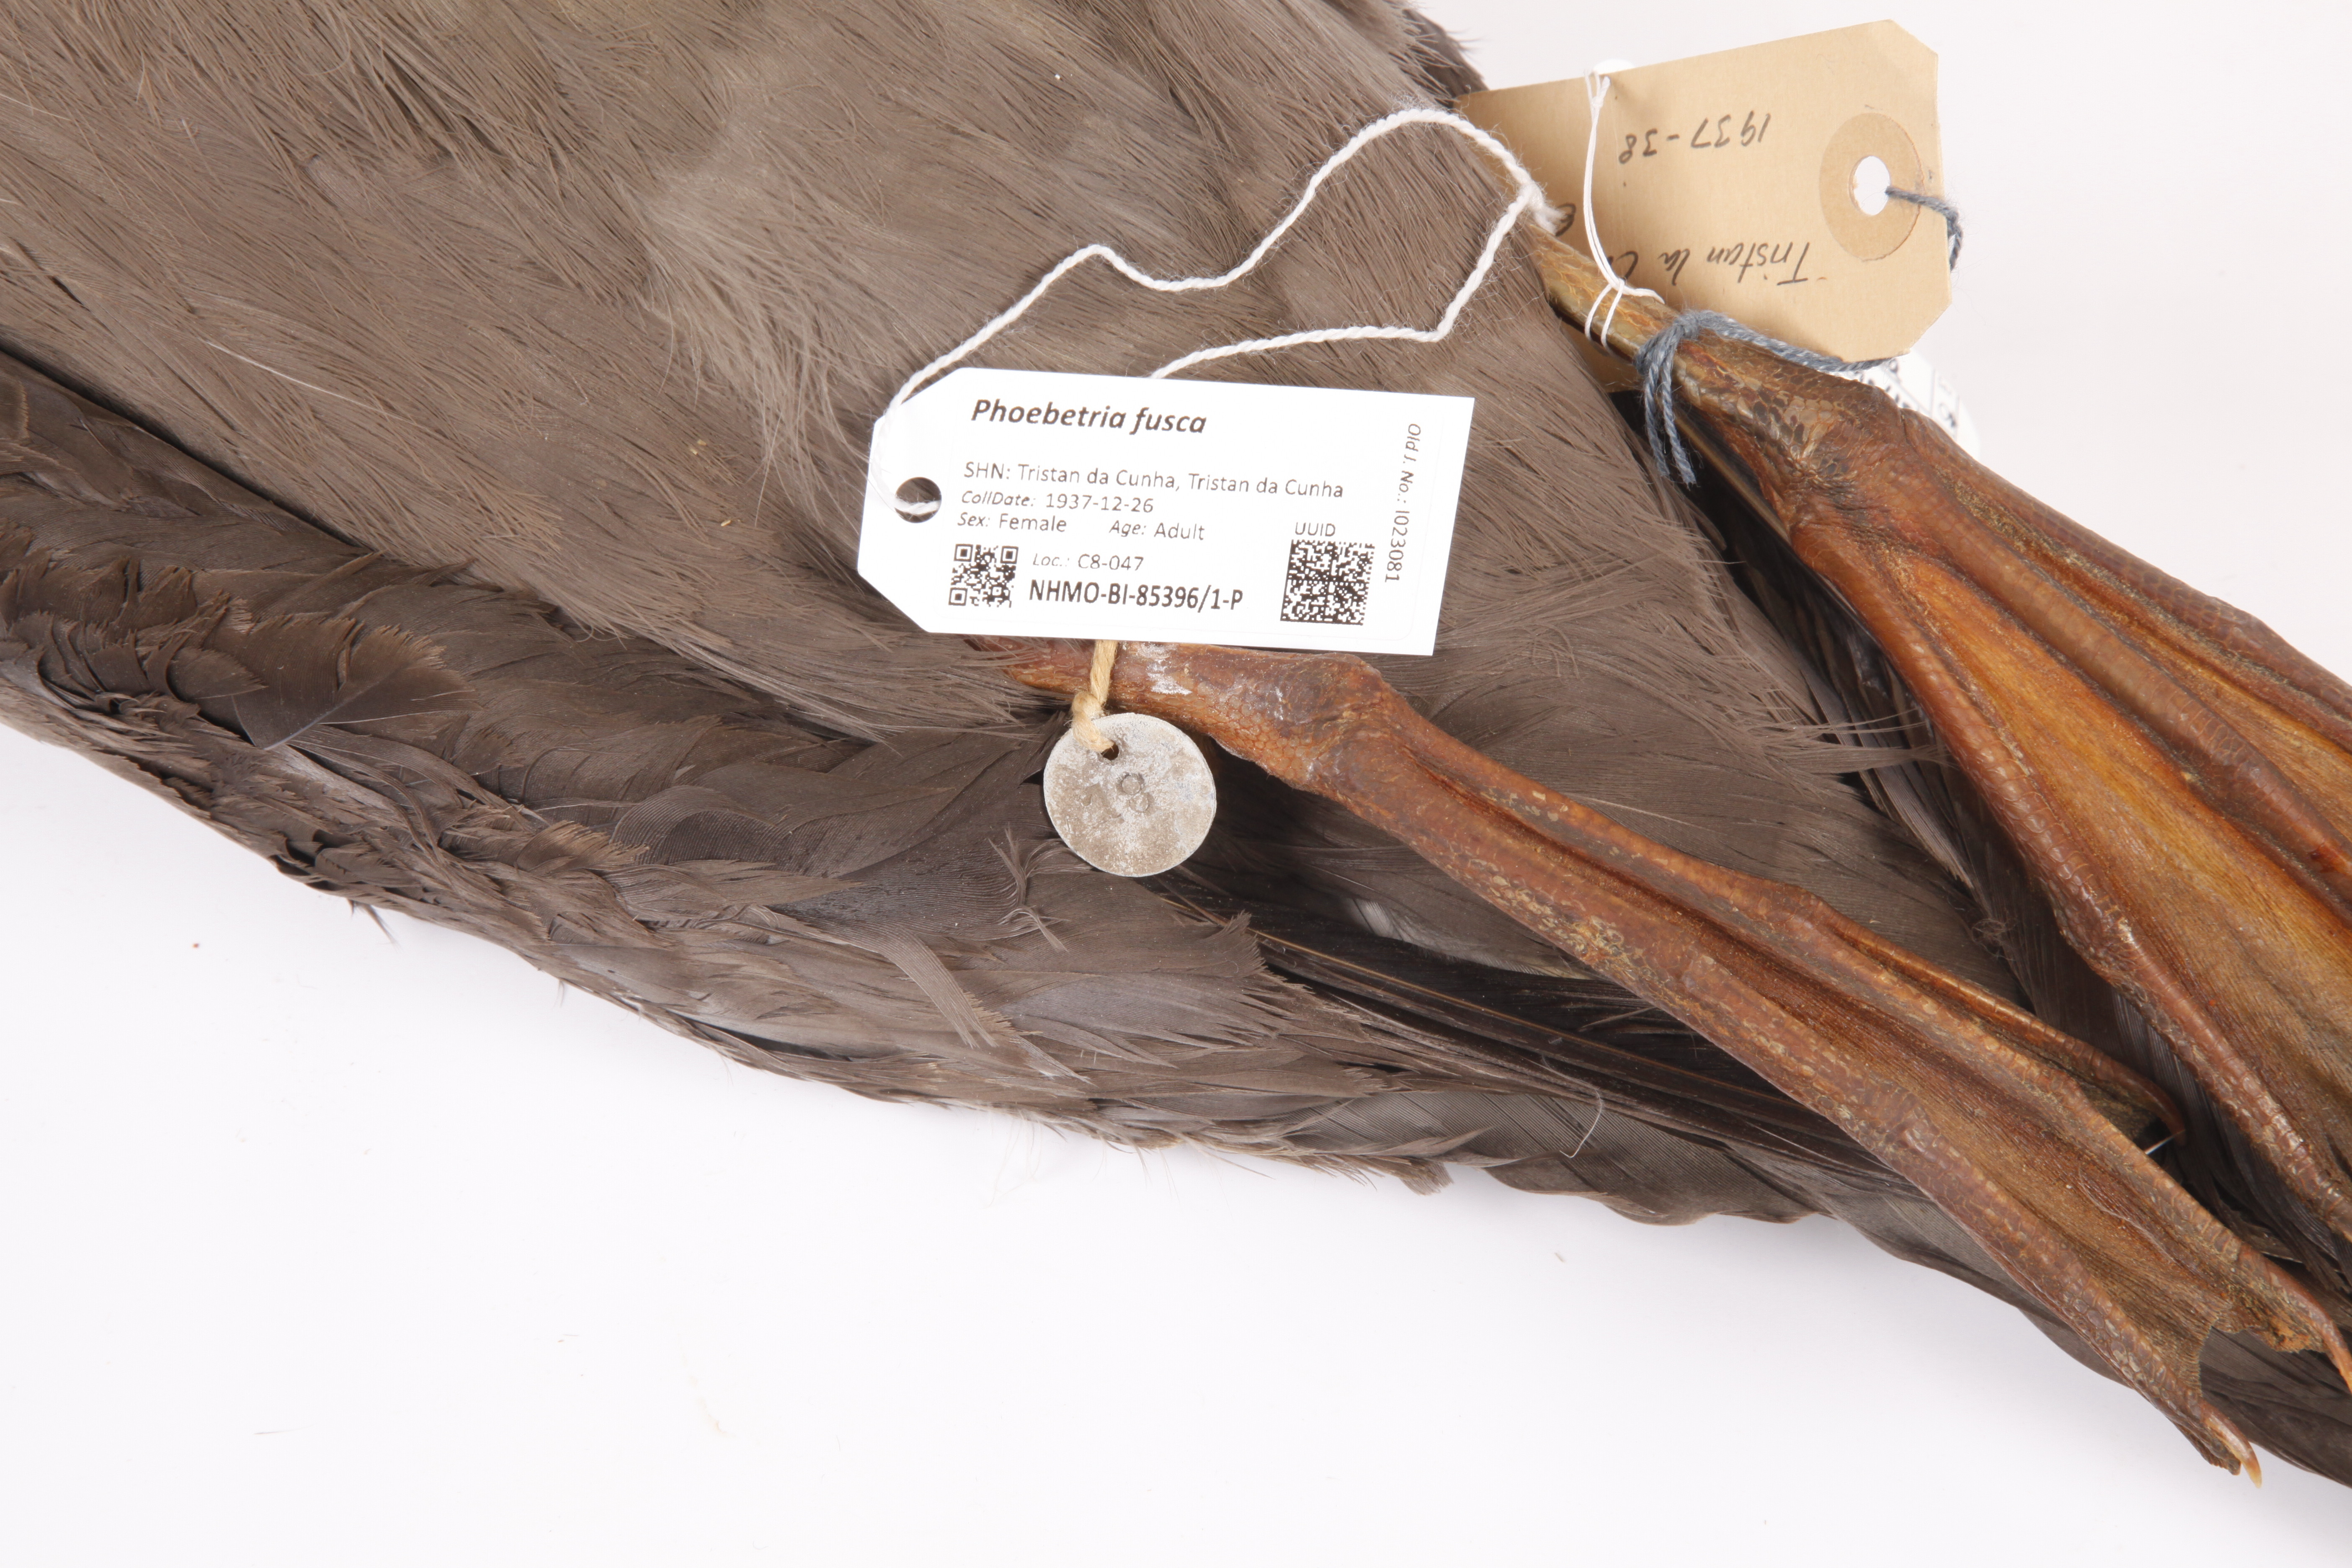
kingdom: Animalia
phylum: Chordata
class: Aves
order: Procellariiformes
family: Diomedeidae
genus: Phoebetria
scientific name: Phoebetria fusca
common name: Sooty albatross
